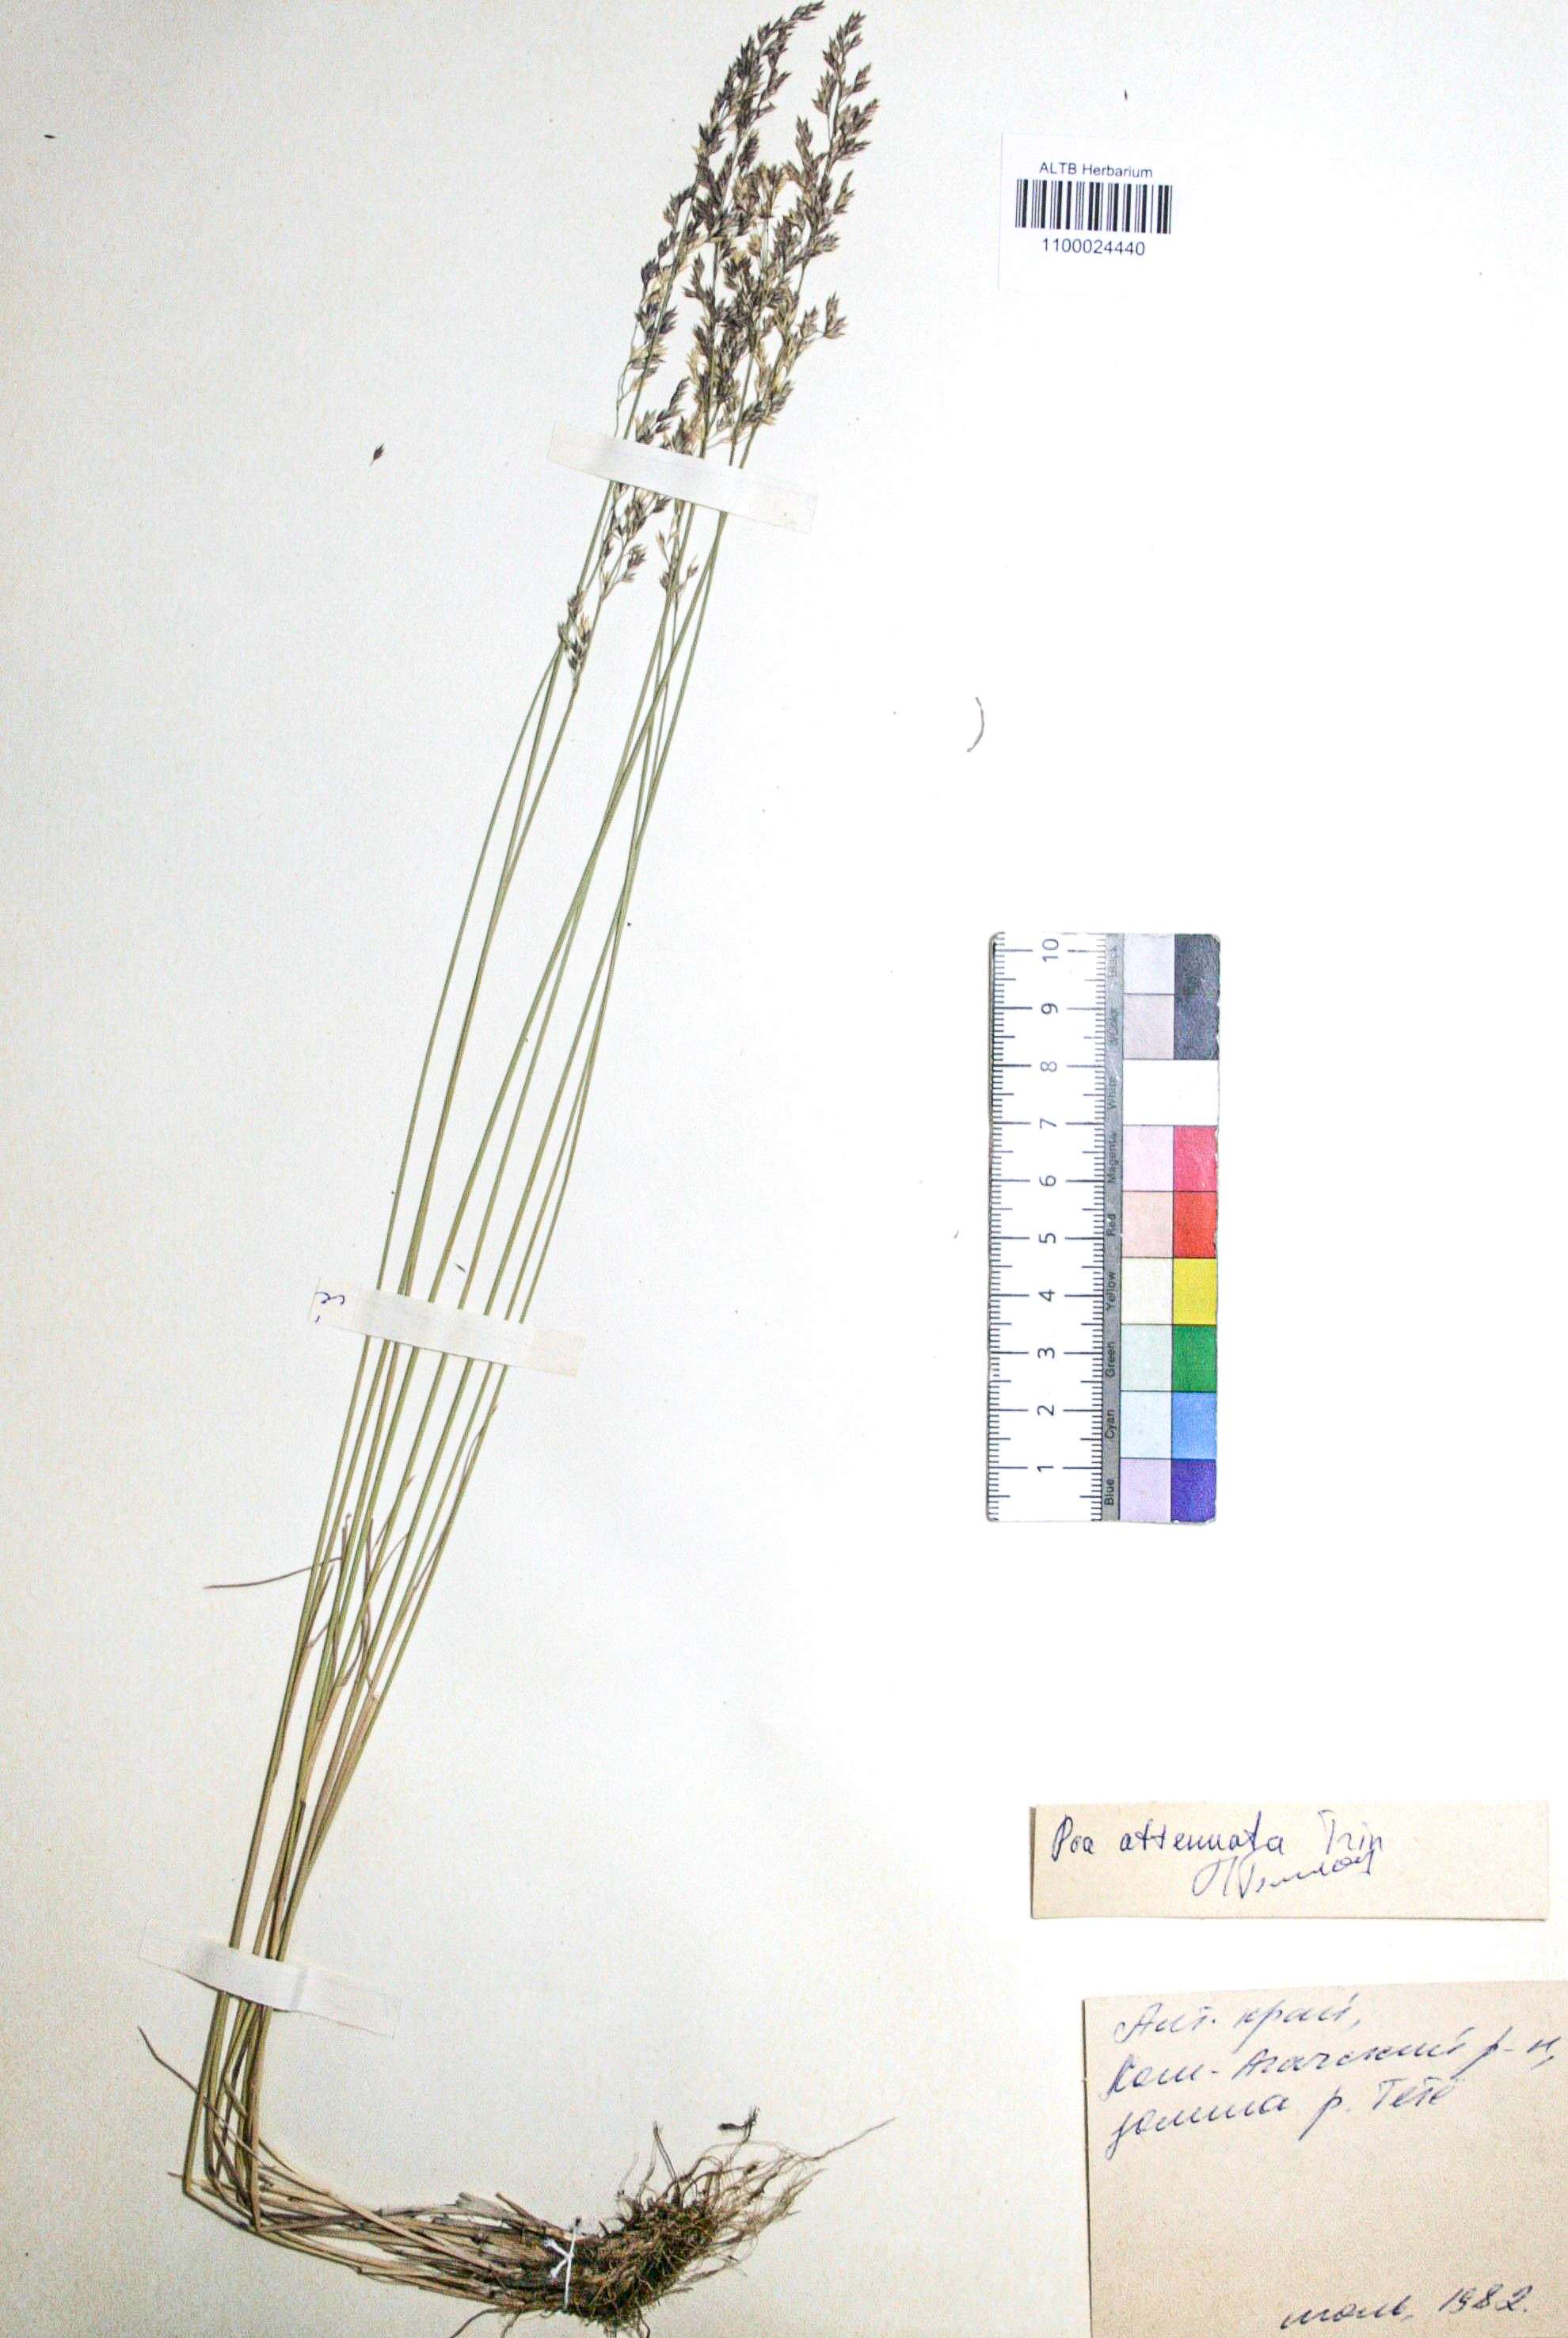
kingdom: Plantae
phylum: Tracheophyta
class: Liliopsida
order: Poales
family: Poaceae
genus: Poa
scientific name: Poa attenuata
